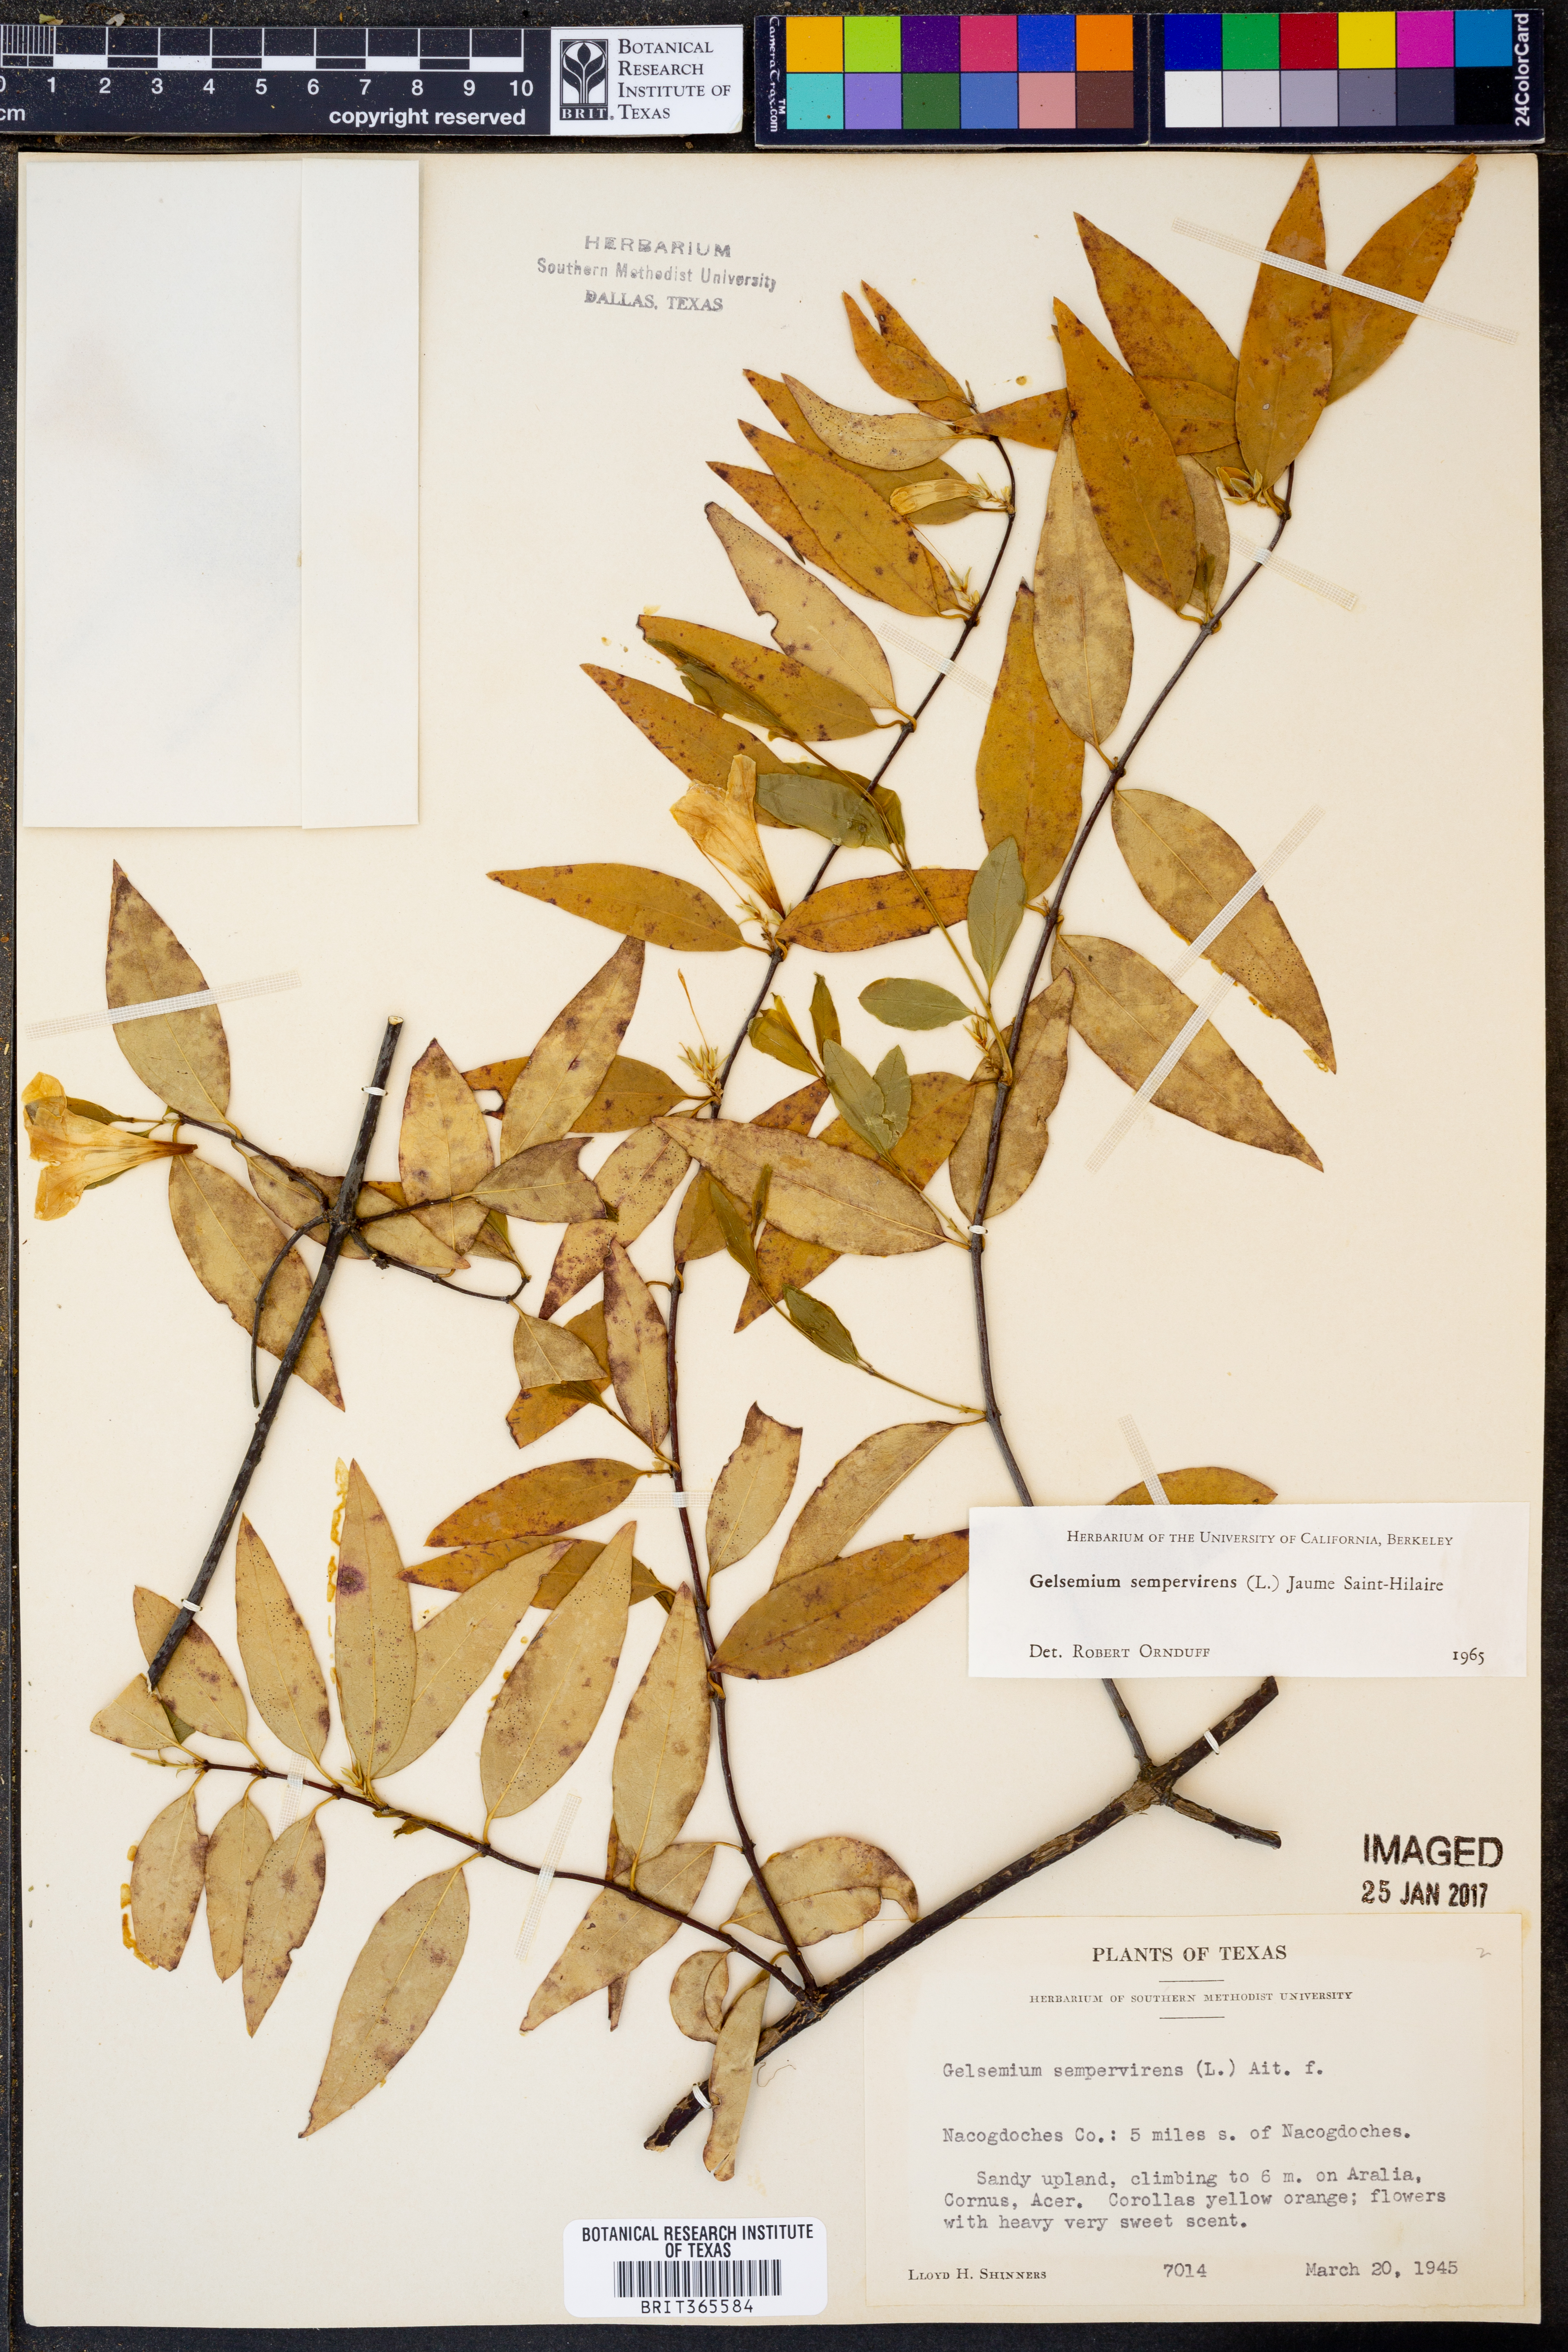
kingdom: Plantae
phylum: Tracheophyta
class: Magnoliopsida
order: Gentianales
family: Gelsemiaceae
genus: Gelsemium
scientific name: Gelsemium sempervirens
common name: Carolina-jasmine
